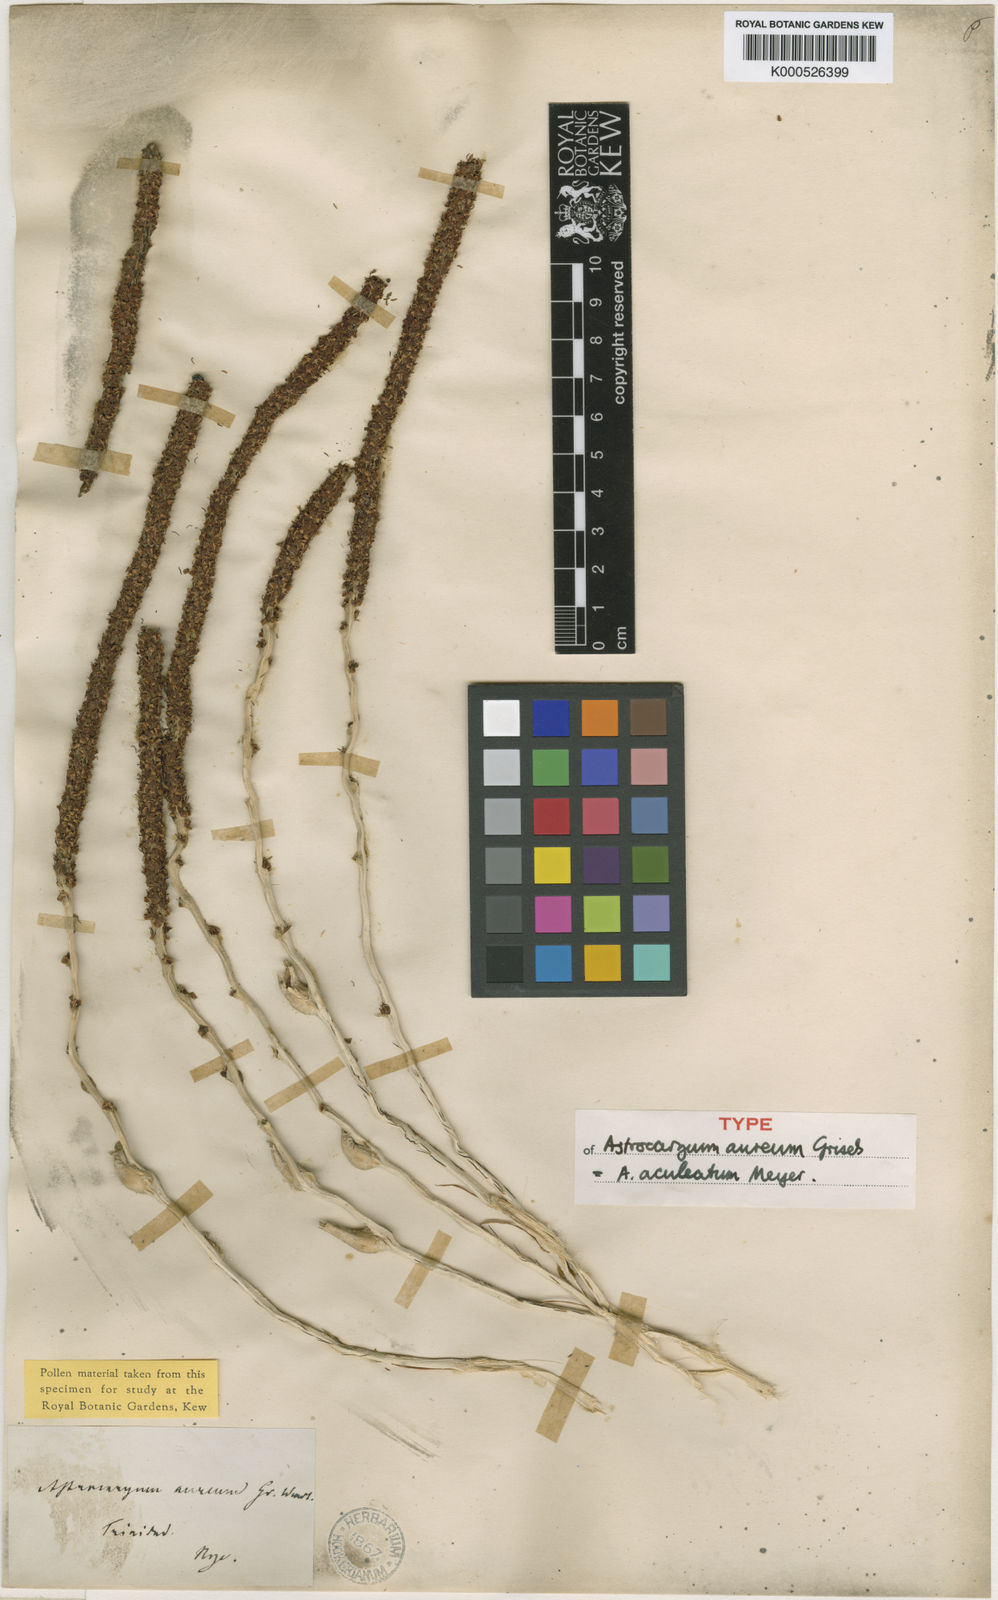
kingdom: Plantae
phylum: Tracheophyta
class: Liliopsida
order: Arecales
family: Arecaceae
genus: Astrocaryum
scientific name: Astrocaryum aculeatum
